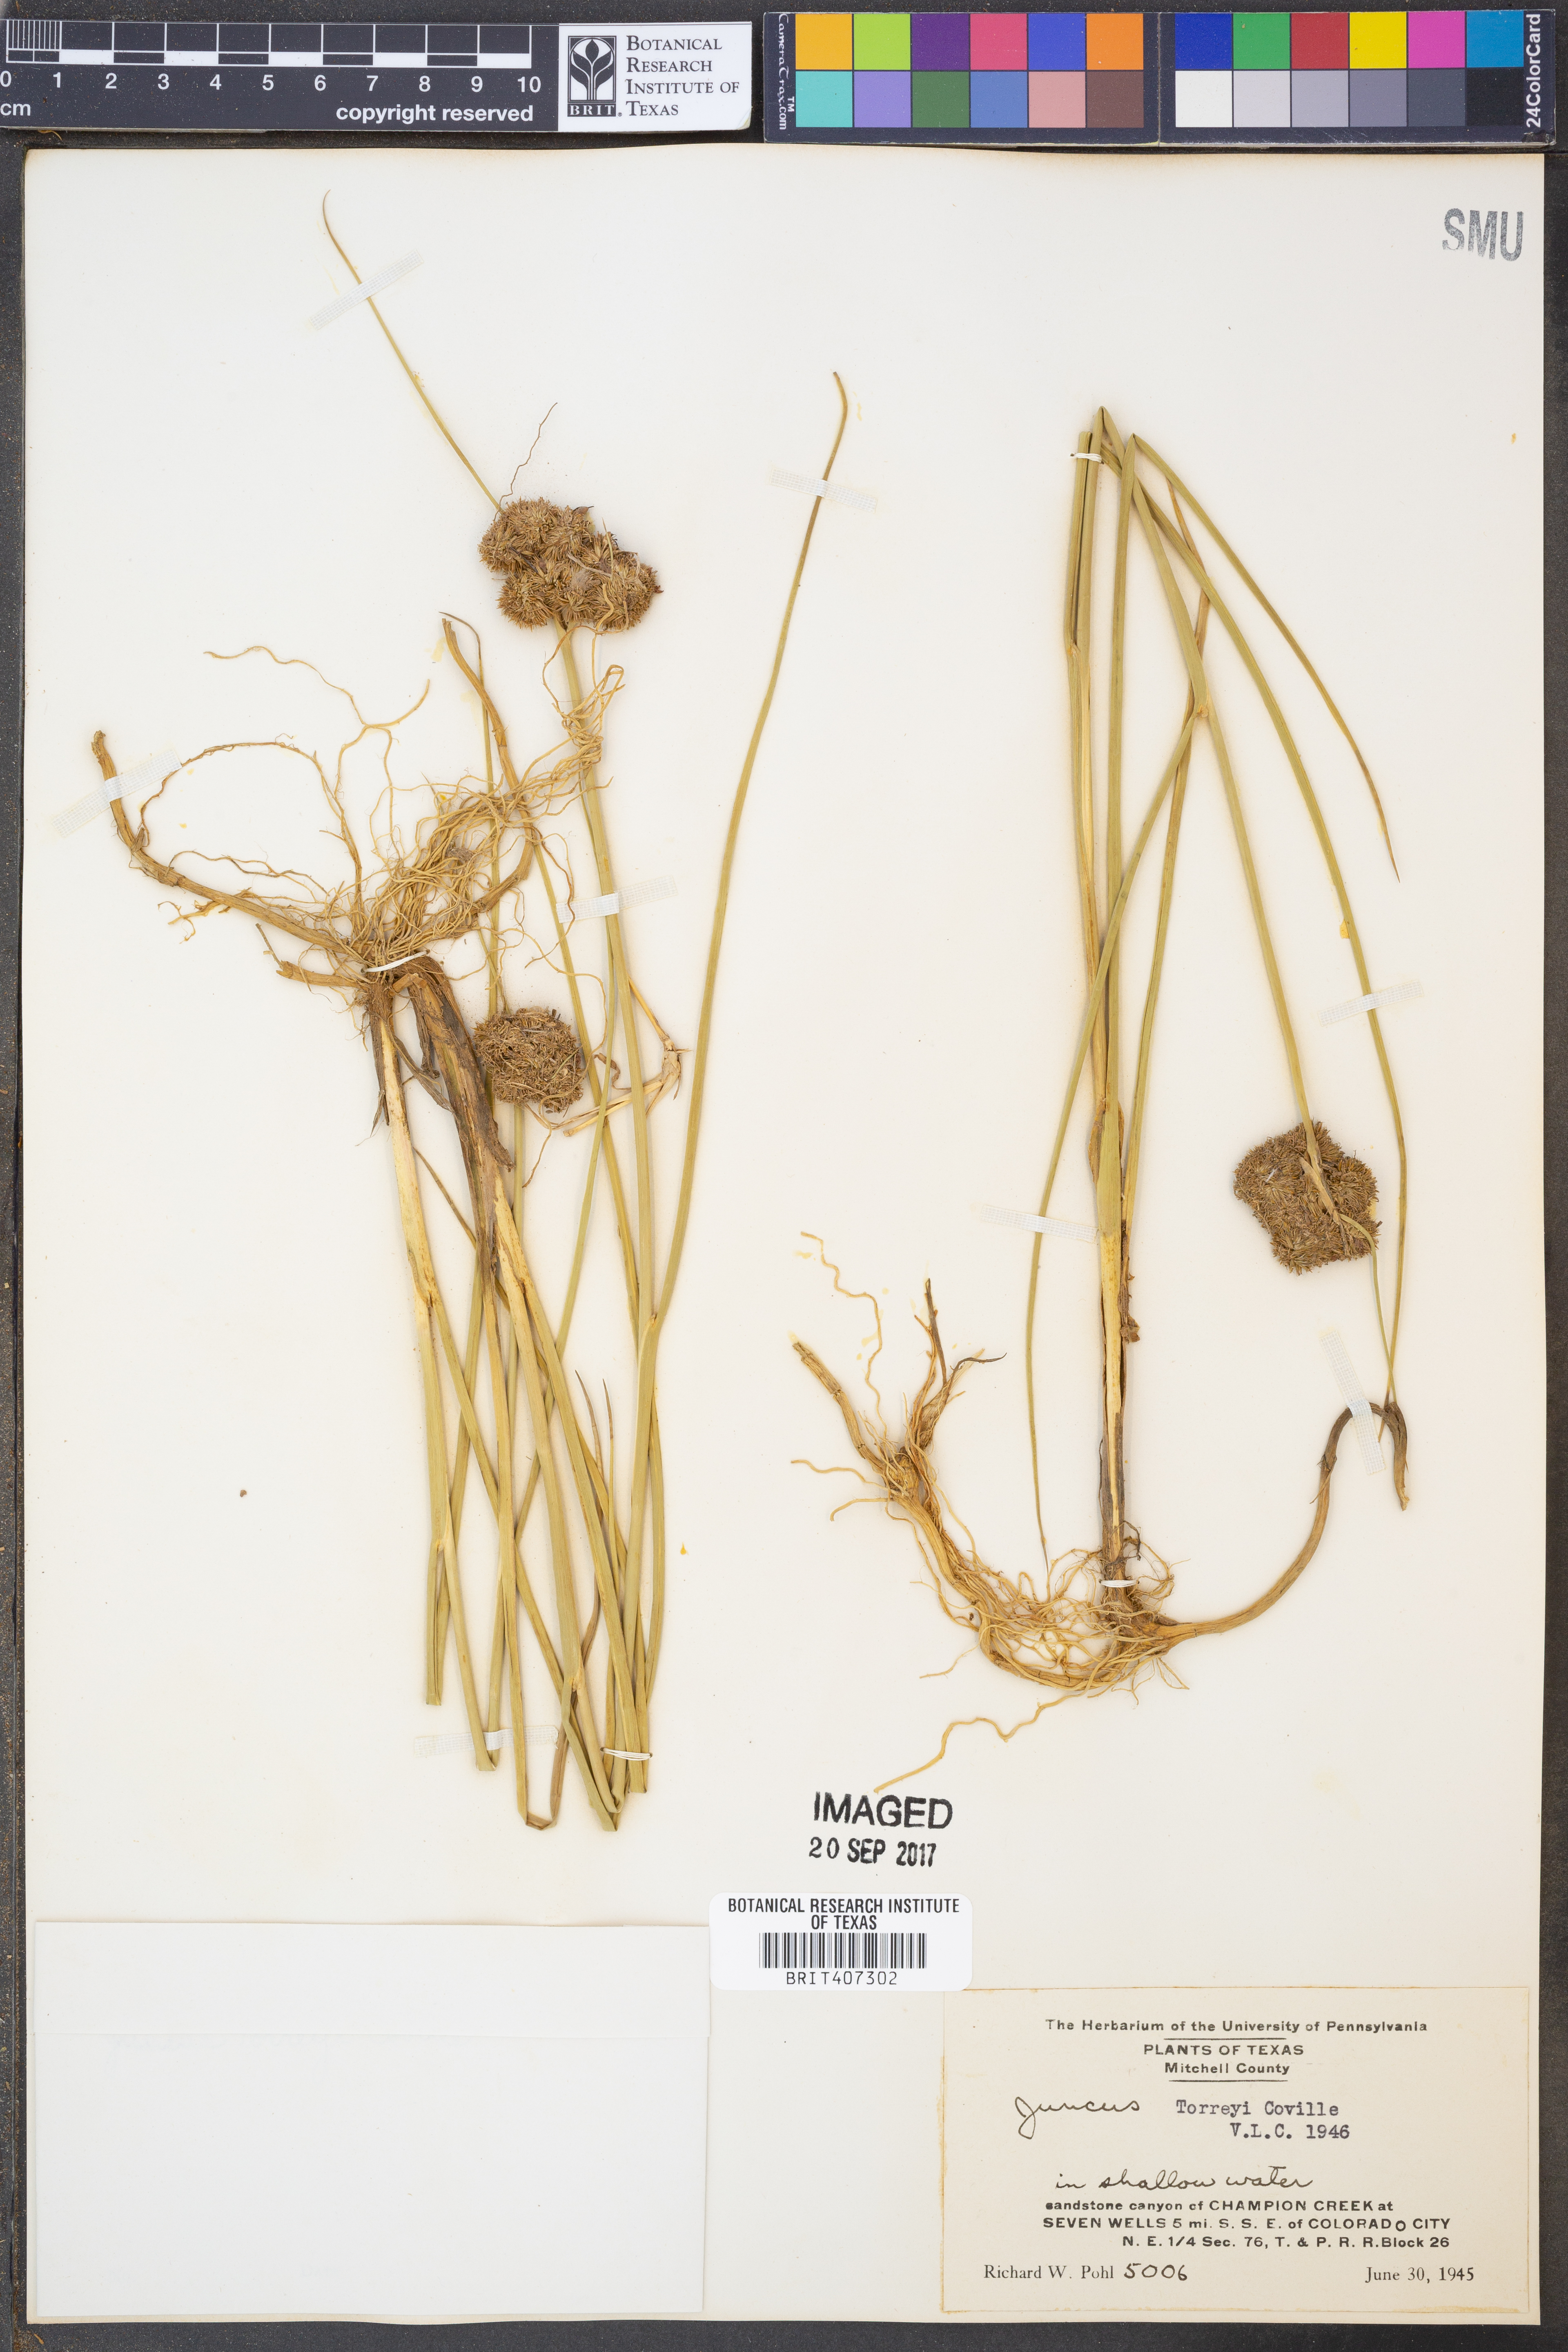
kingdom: Plantae
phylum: Tracheophyta
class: Liliopsida
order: Poales
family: Juncaceae
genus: Juncus
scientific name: Juncus torreyi
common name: Torrey's rush
